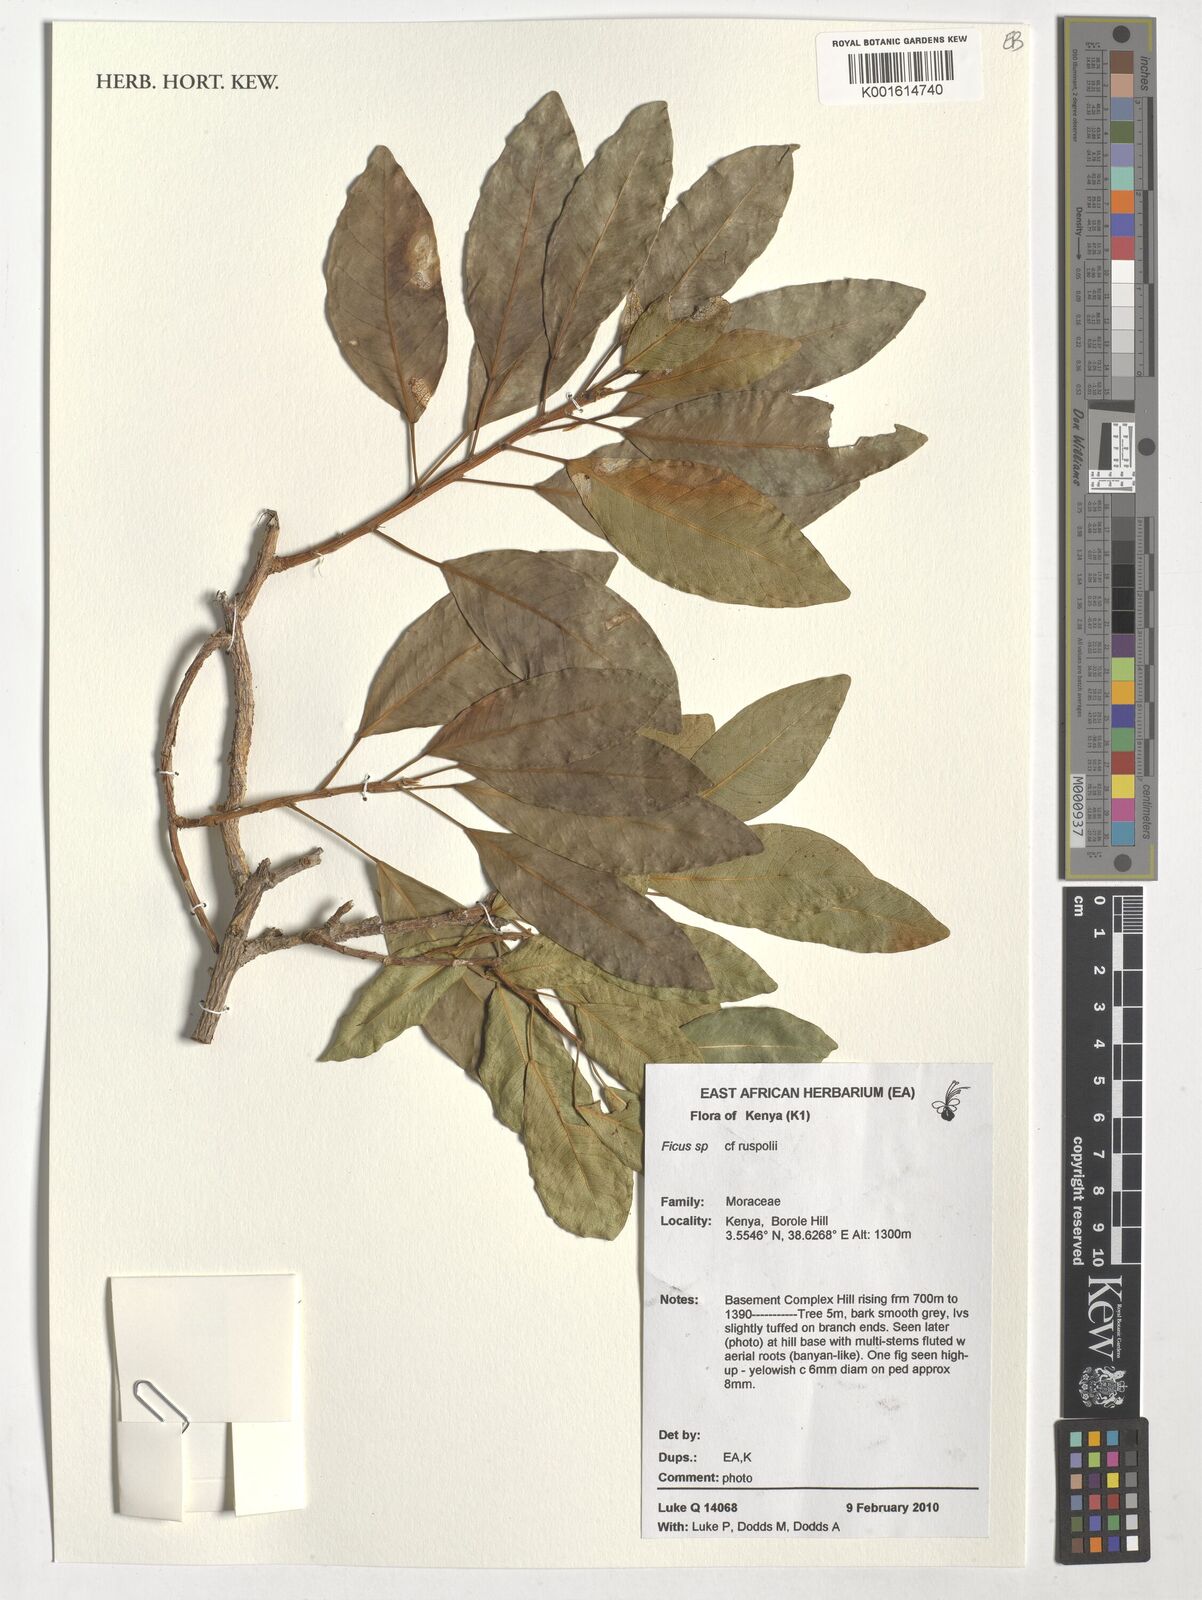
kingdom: Plantae
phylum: Tracheophyta
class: Magnoliopsida
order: Rosales
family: Moraceae
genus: Ficus
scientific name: Ficus ruspolii
